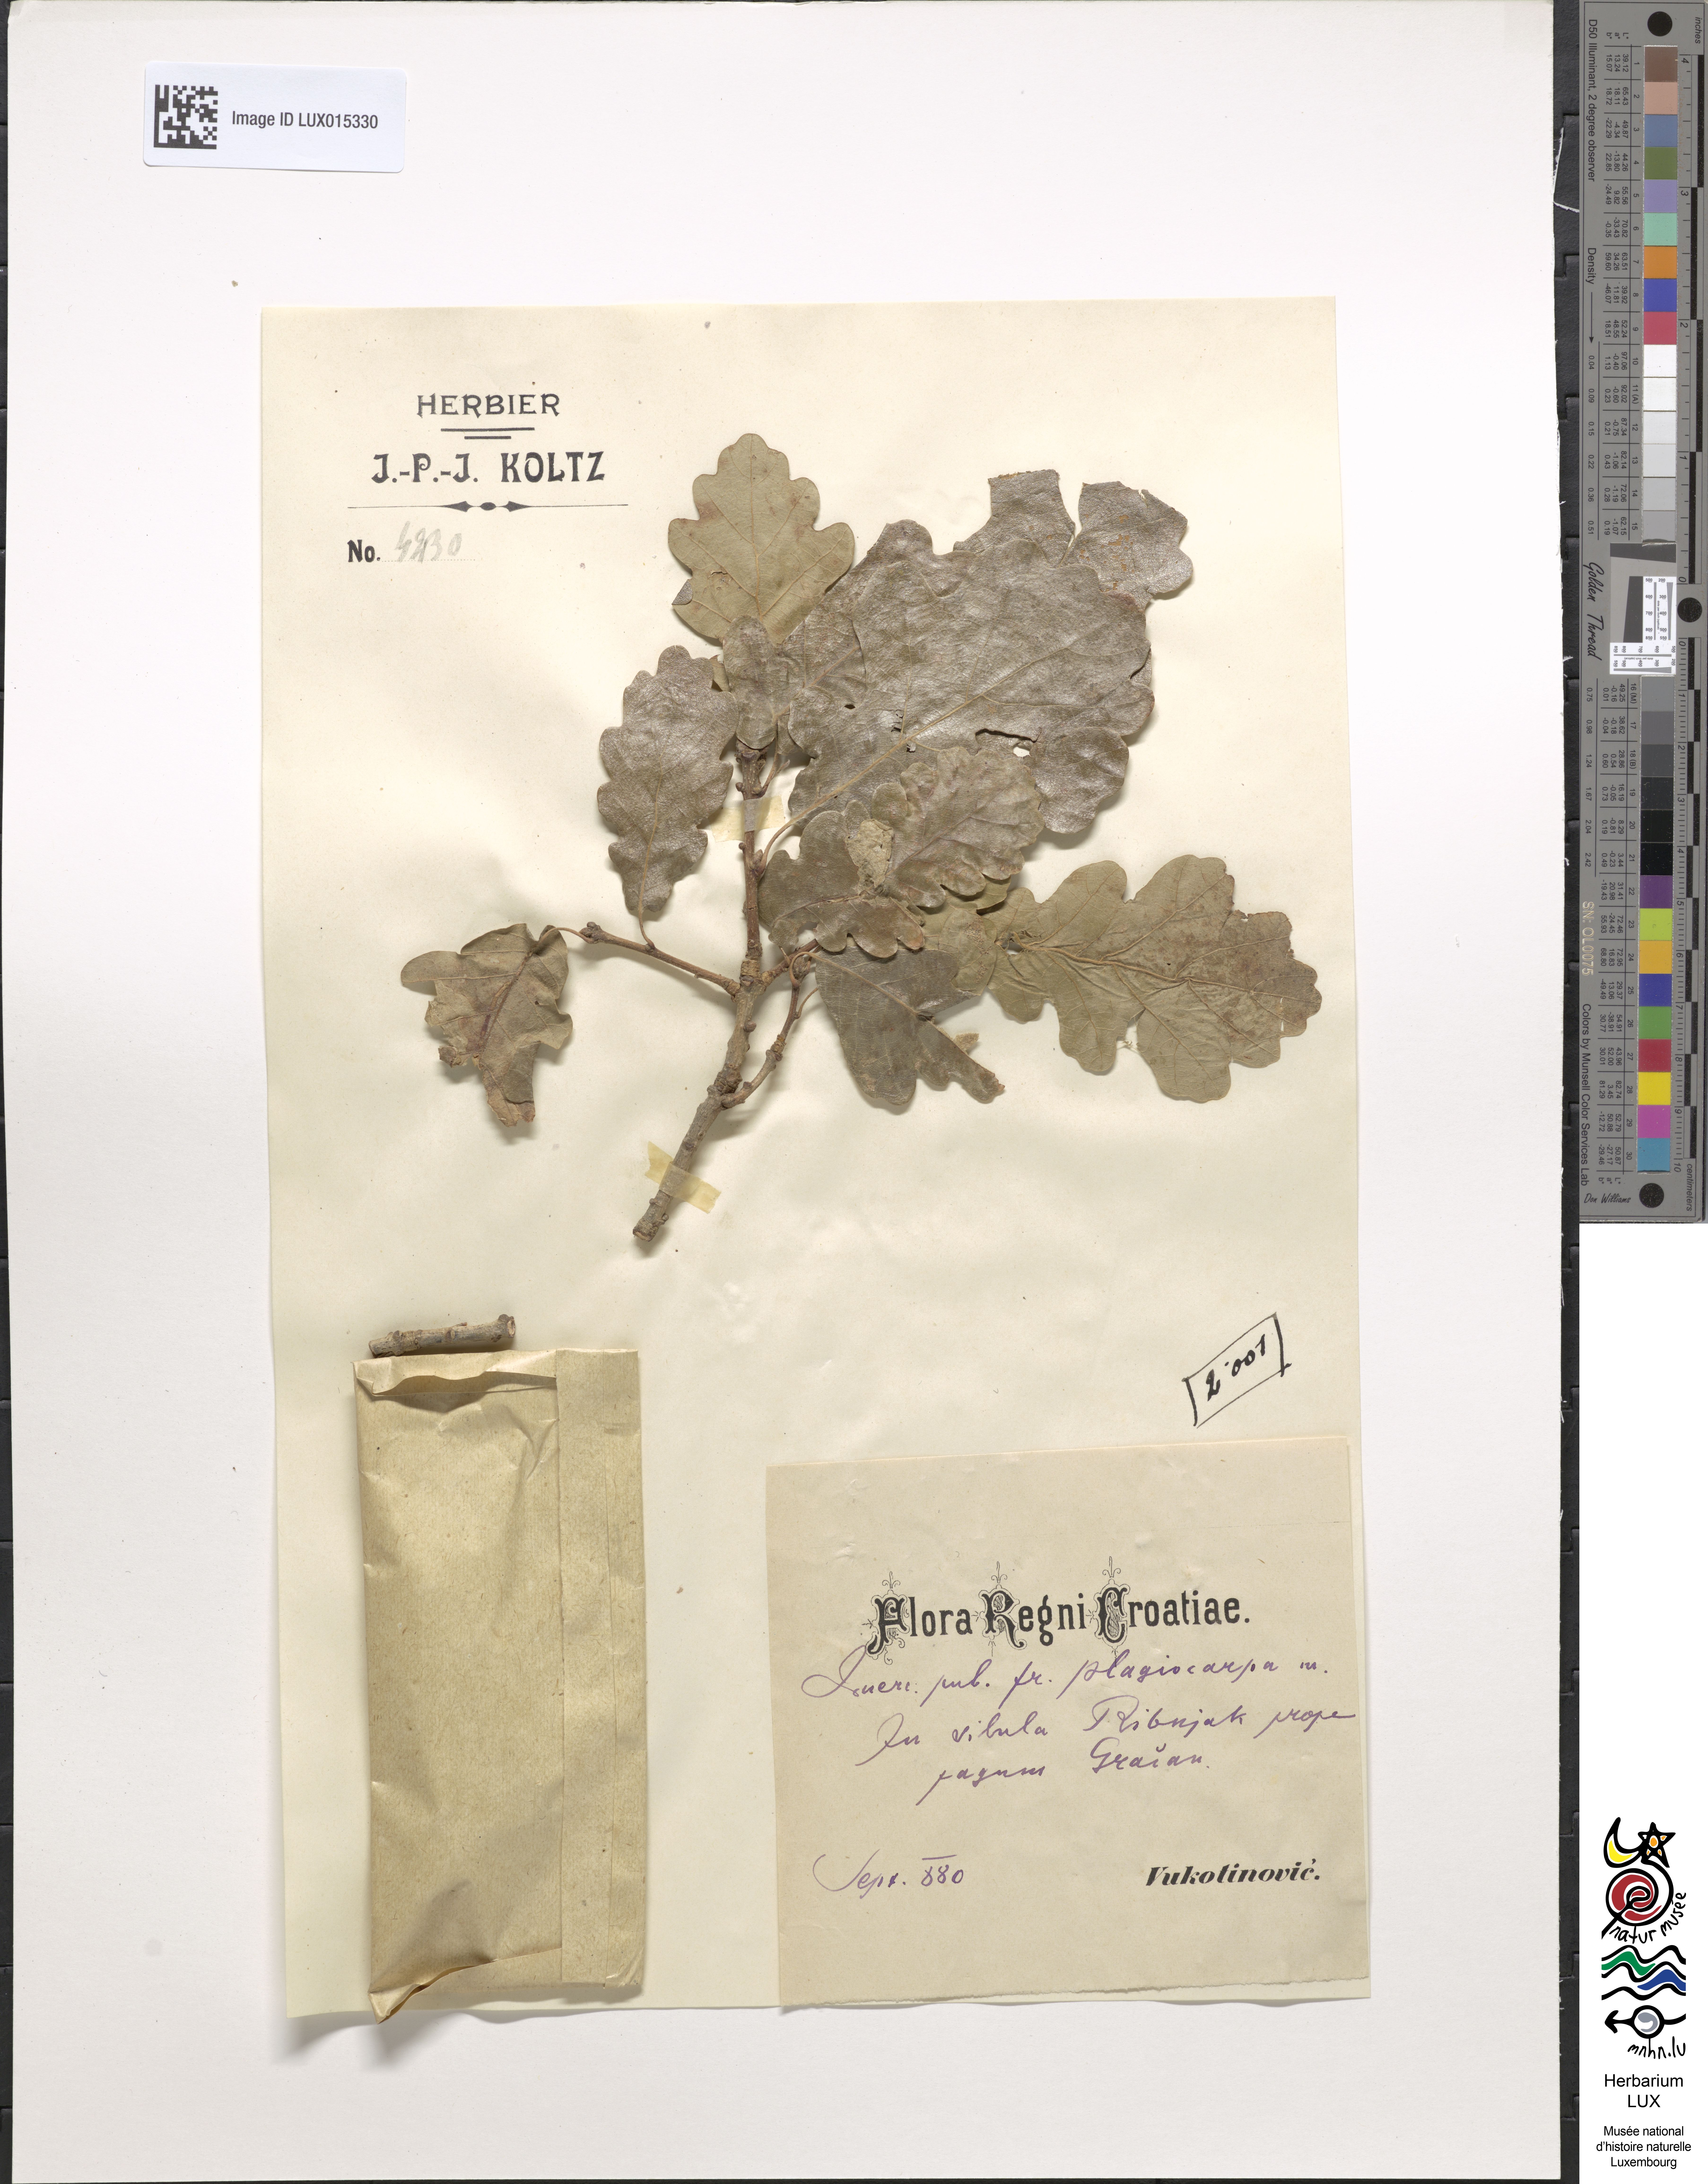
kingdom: Plantae
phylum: Tracheophyta
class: Magnoliopsida
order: Fagales
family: Fagaceae
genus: Quercus
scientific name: Quercus pubescens
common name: Downy oak
